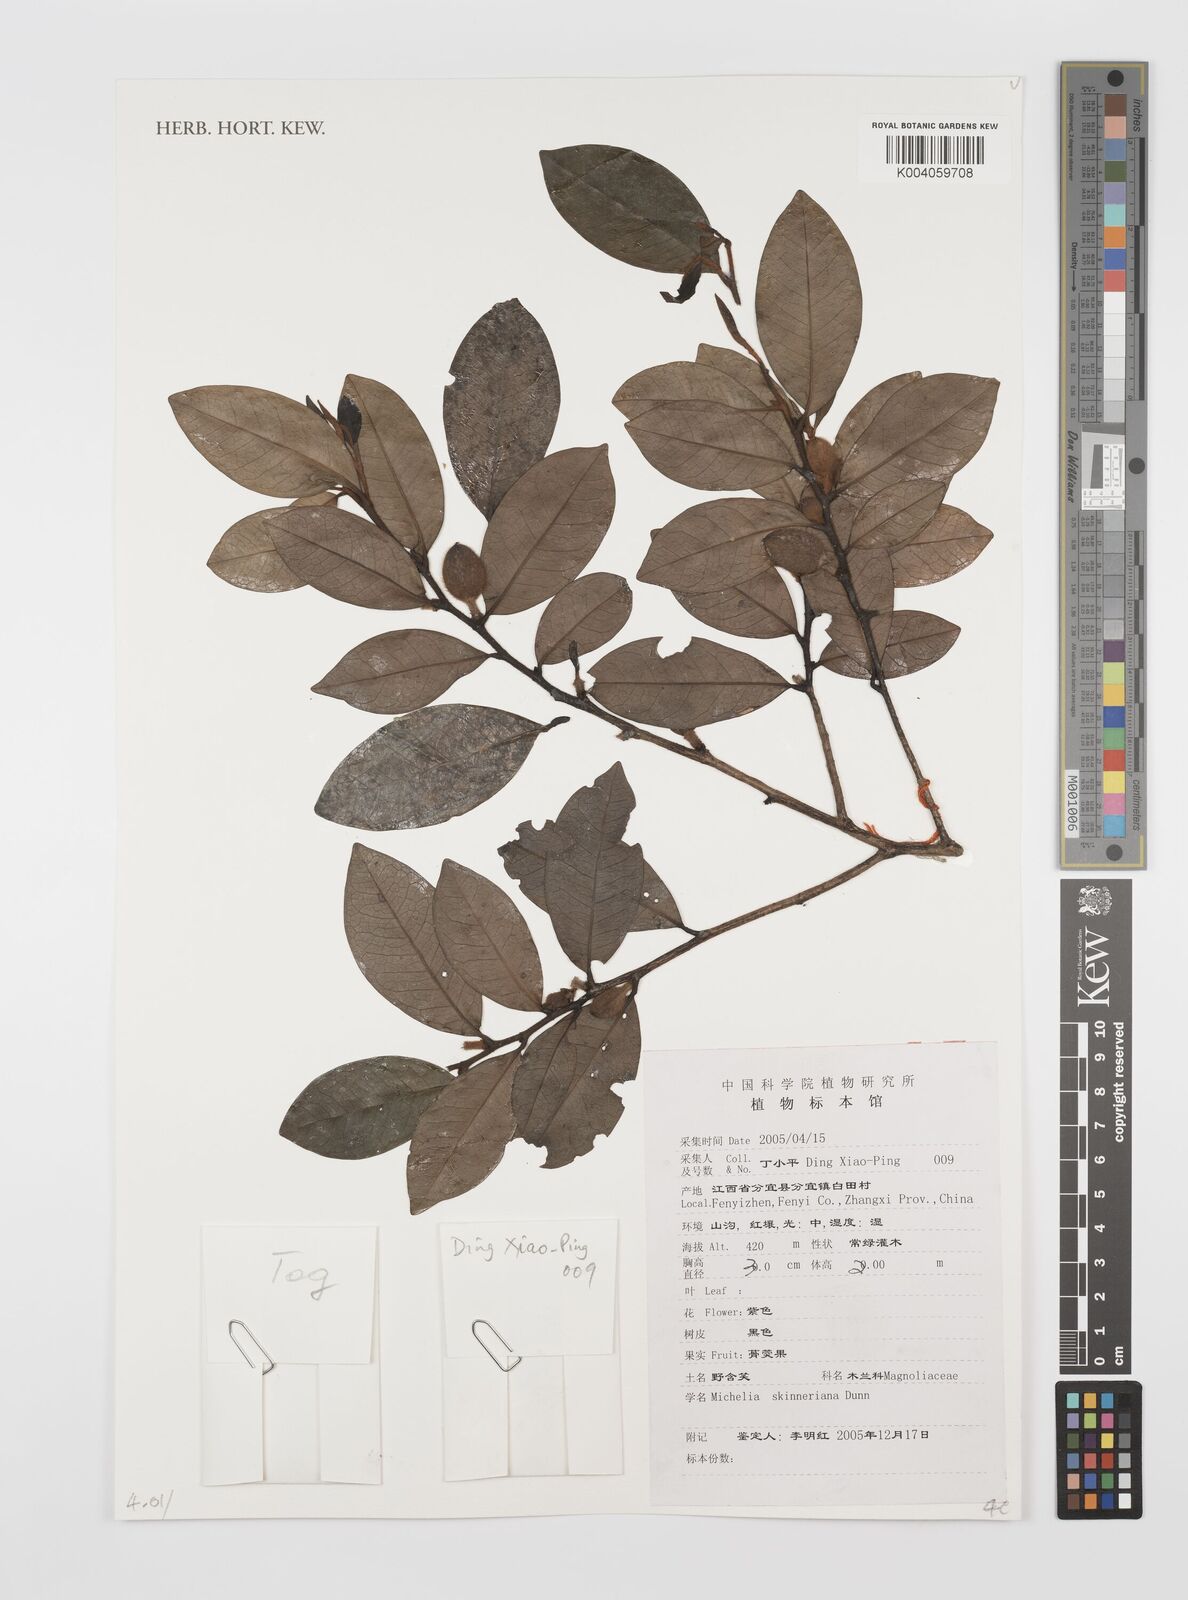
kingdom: Plantae
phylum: Tracheophyta
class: Magnoliopsida
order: Magnoliales
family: Magnoliaceae
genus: Magnolia
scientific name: Magnolia
